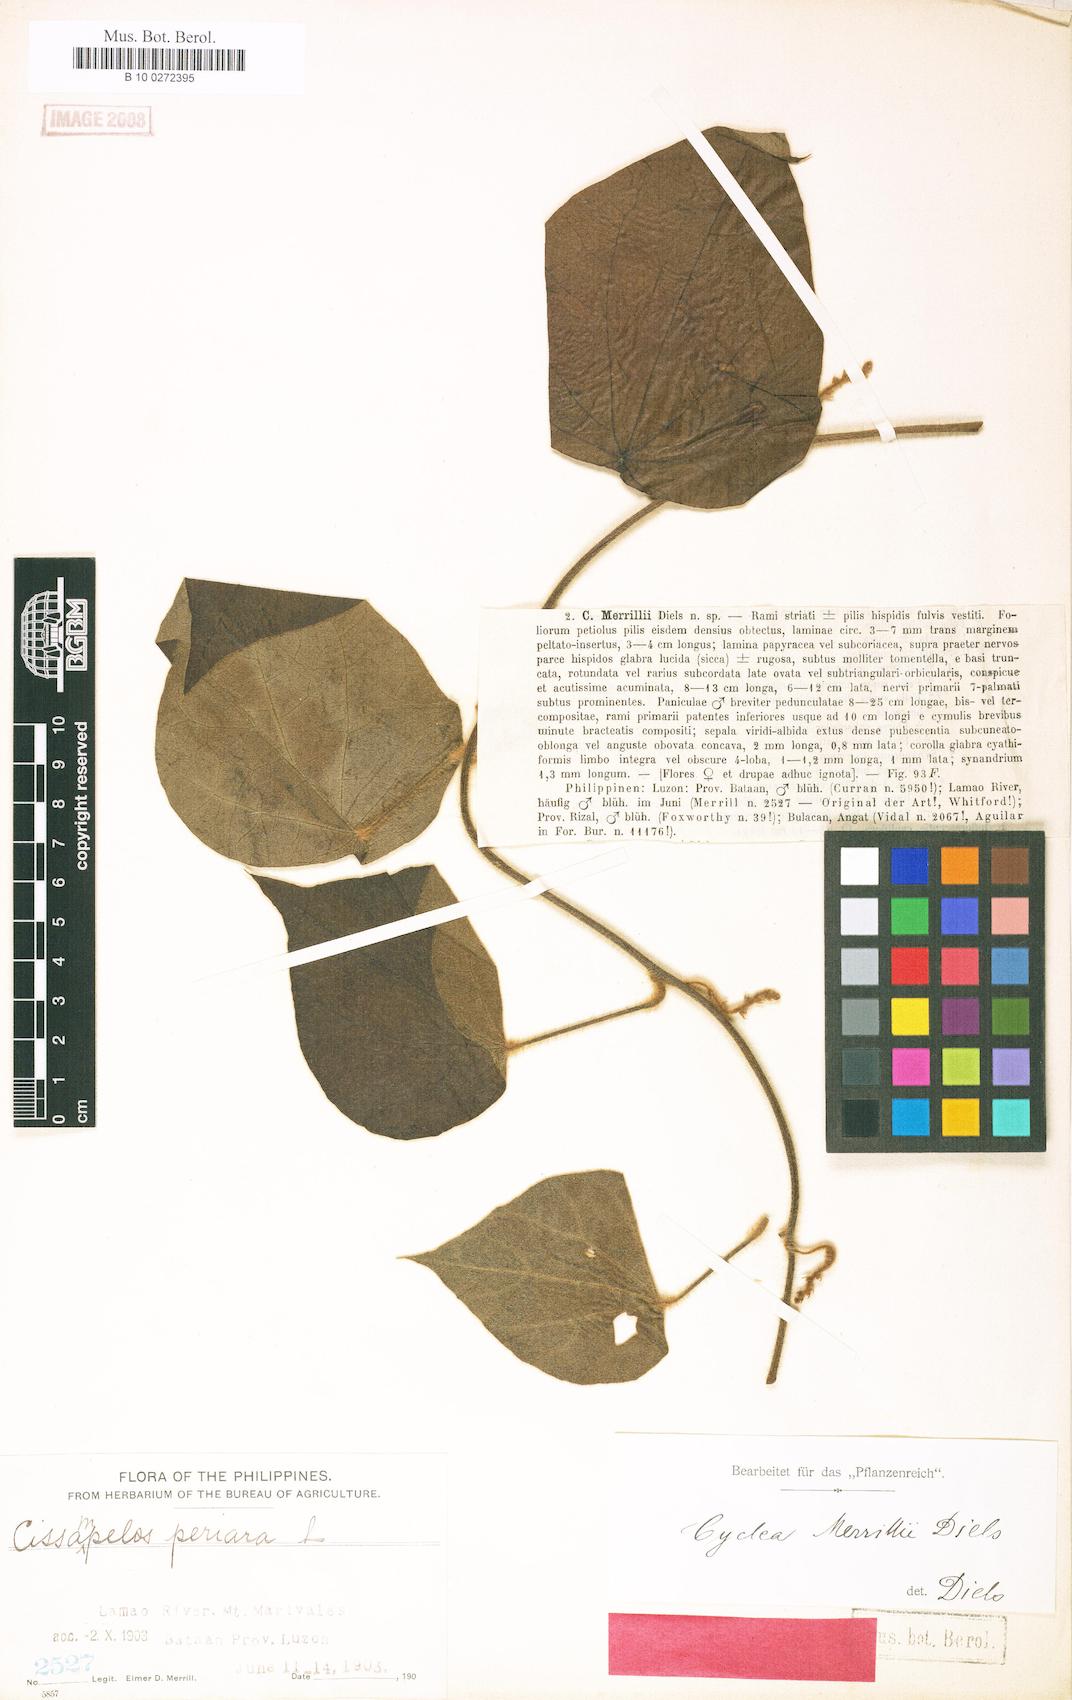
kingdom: Plantae
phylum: Tracheophyta
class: Magnoliopsida
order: Ranunculales
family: Menispermaceae
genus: Cyclea
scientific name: Cyclea merrillii
